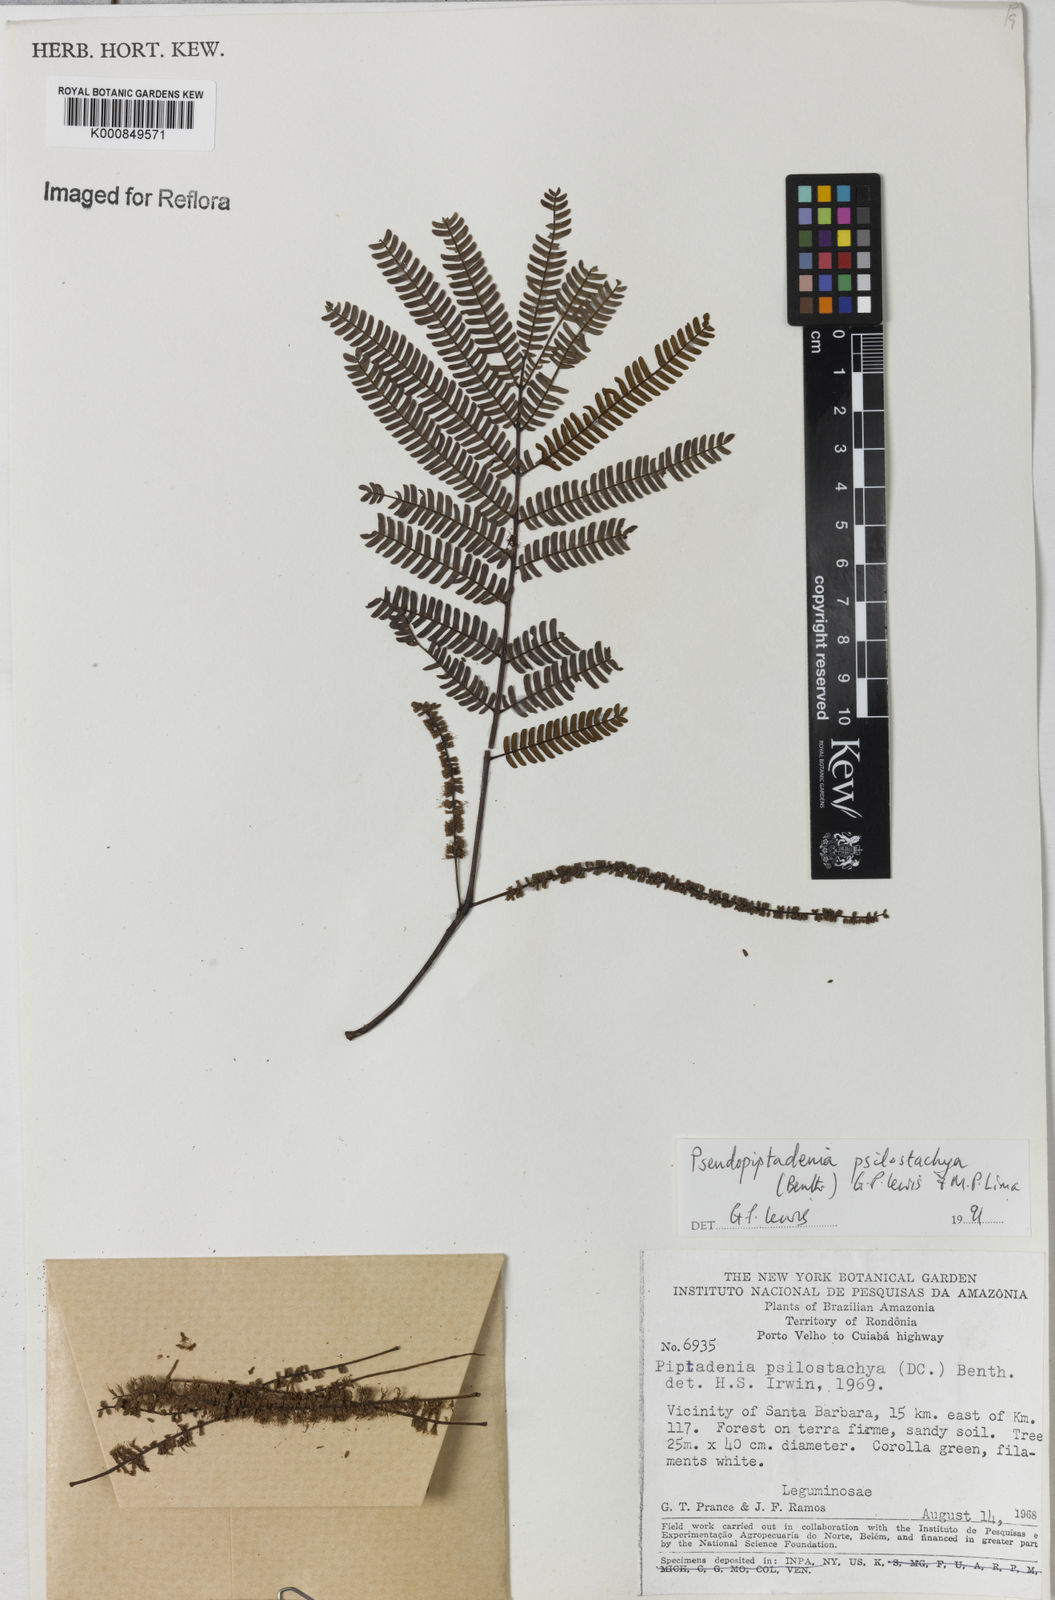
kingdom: Plantae
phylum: Tracheophyta
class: Magnoliopsida
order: Fabales
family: Fabaceae
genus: Pseudopiptadenia
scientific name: Pseudopiptadenia psilostachya
